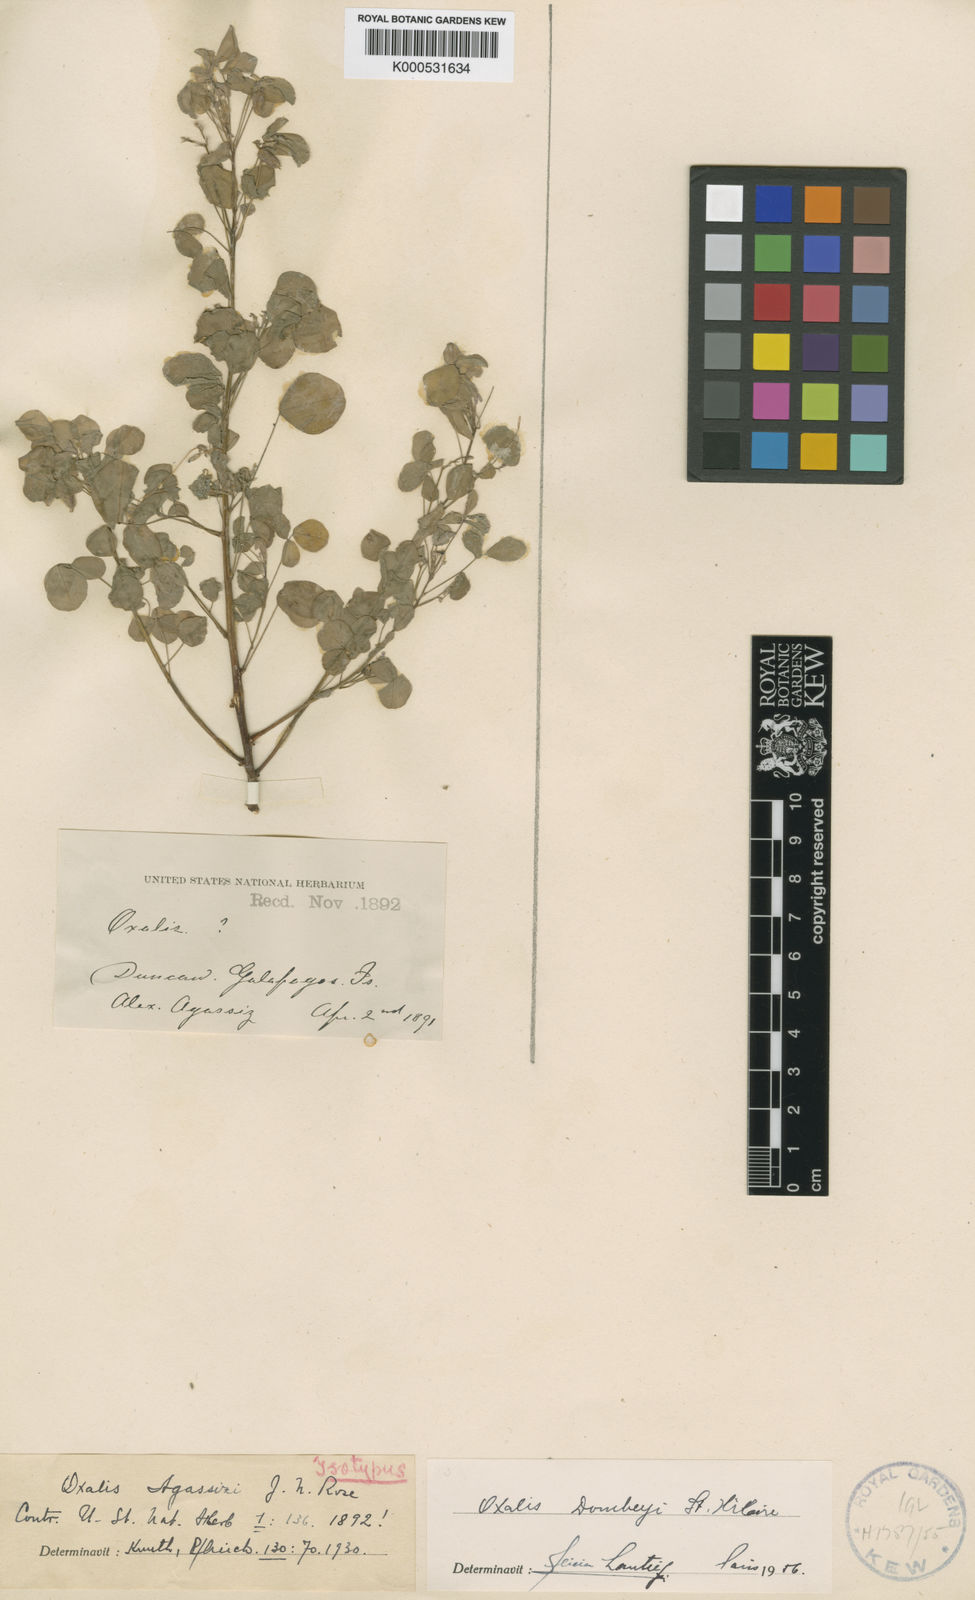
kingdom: Plantae
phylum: Tracheophyta
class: Magnoliopsida
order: Oxalidales
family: Oxalidaceae
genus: Oxalis
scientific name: Oxalis dombeyi
